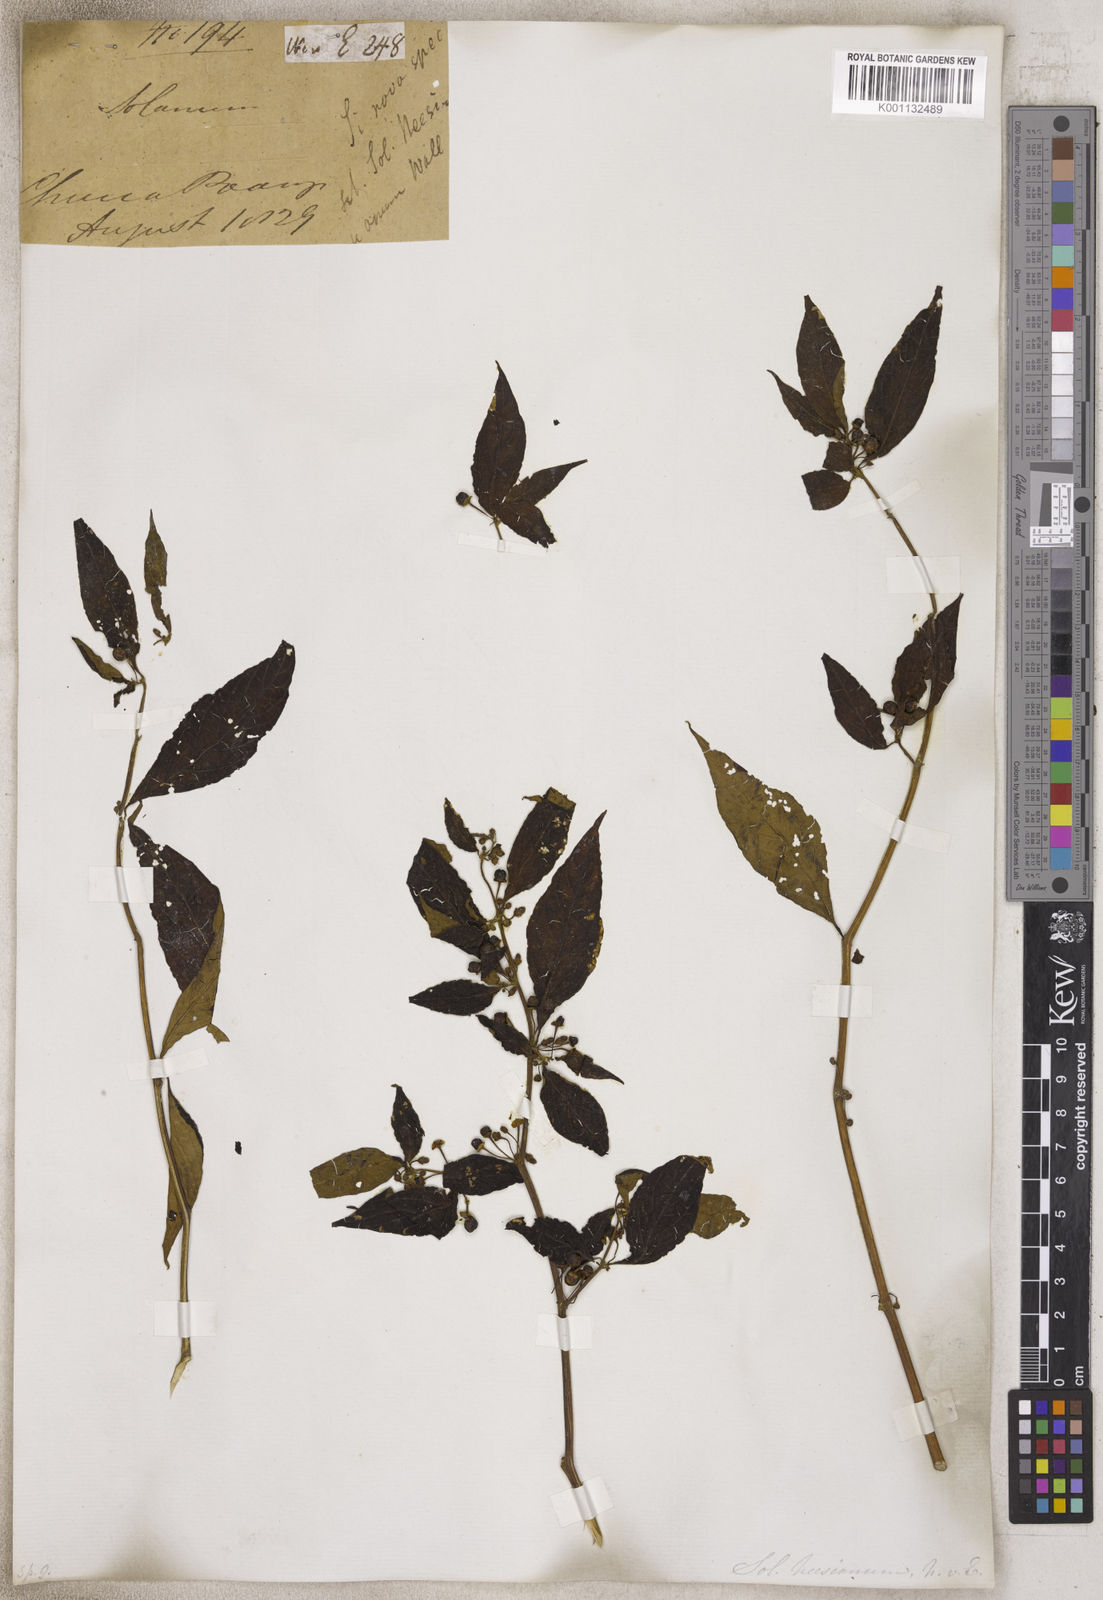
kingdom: Plantae
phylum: Tracheophyta
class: Magnoliopsida
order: Solanales
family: Solanaceae
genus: Solanum
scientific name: Solanum
